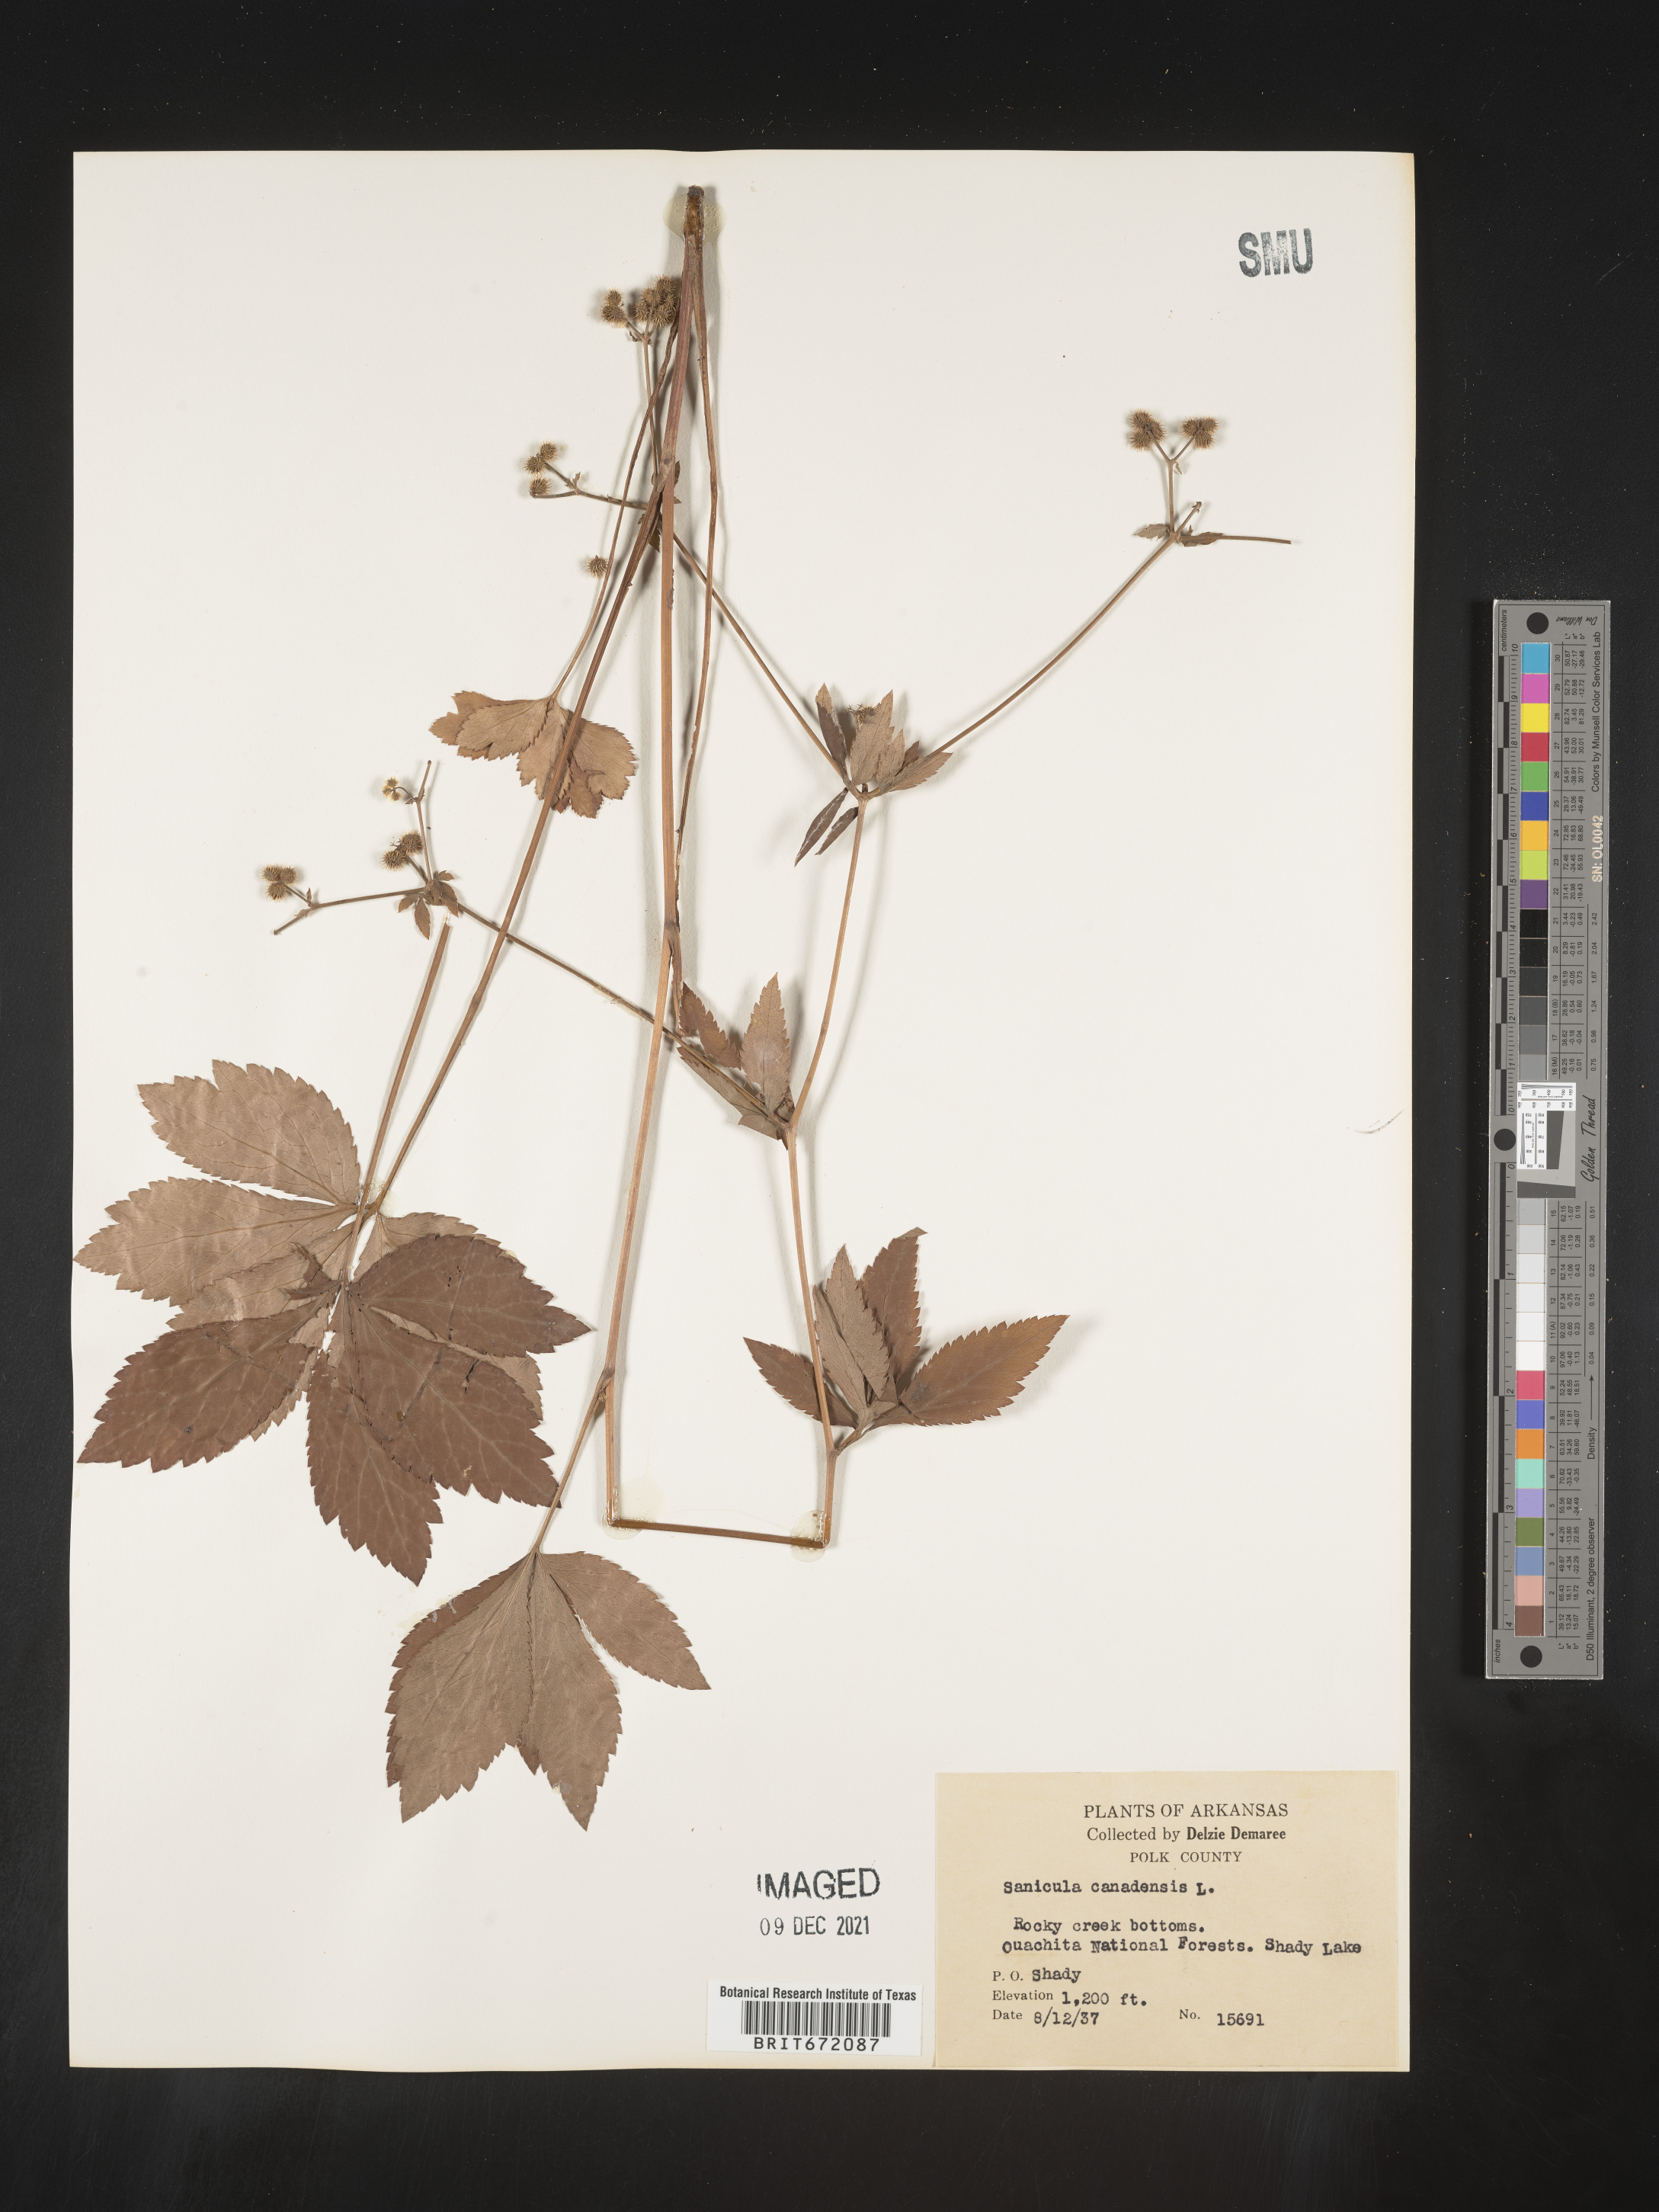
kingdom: Plantae
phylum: Tracheophyta
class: Magnoliopsida
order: Apiales
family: Apiaceae
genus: Sanicula
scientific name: Sanicula canadensis
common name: Canada sanicle
